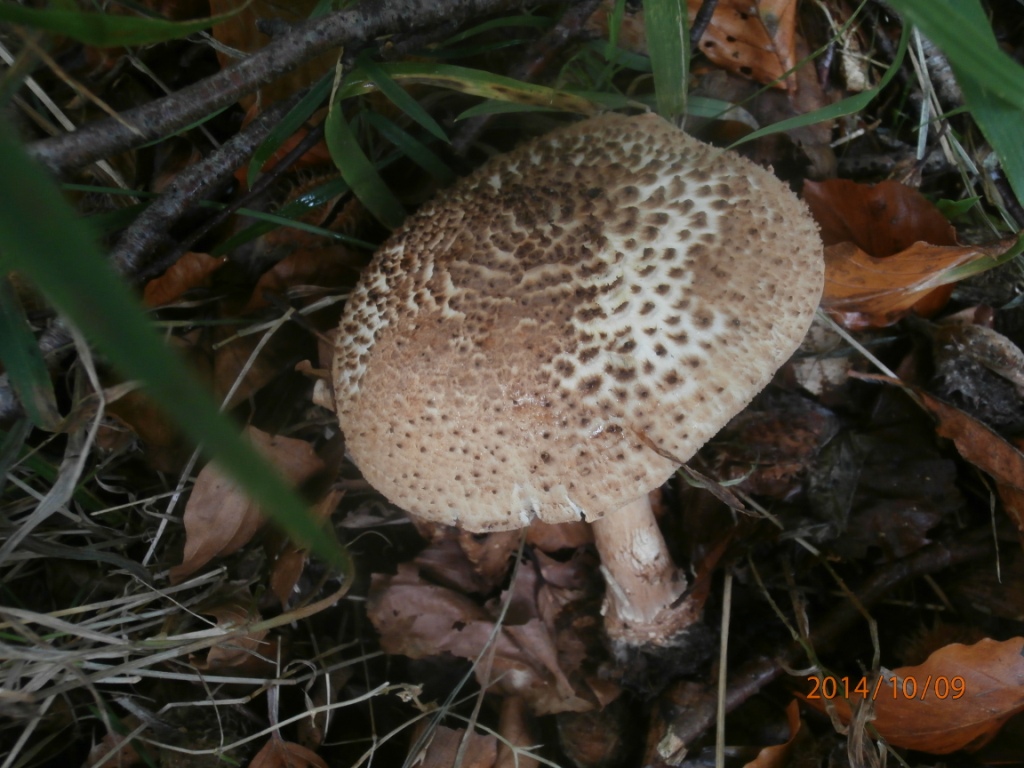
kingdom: Fungi
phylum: Basidiomycota
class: Agaricomycetes
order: Agaricales
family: Agaricaceae
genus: Echinoderma
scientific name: Echinoderma asperum
